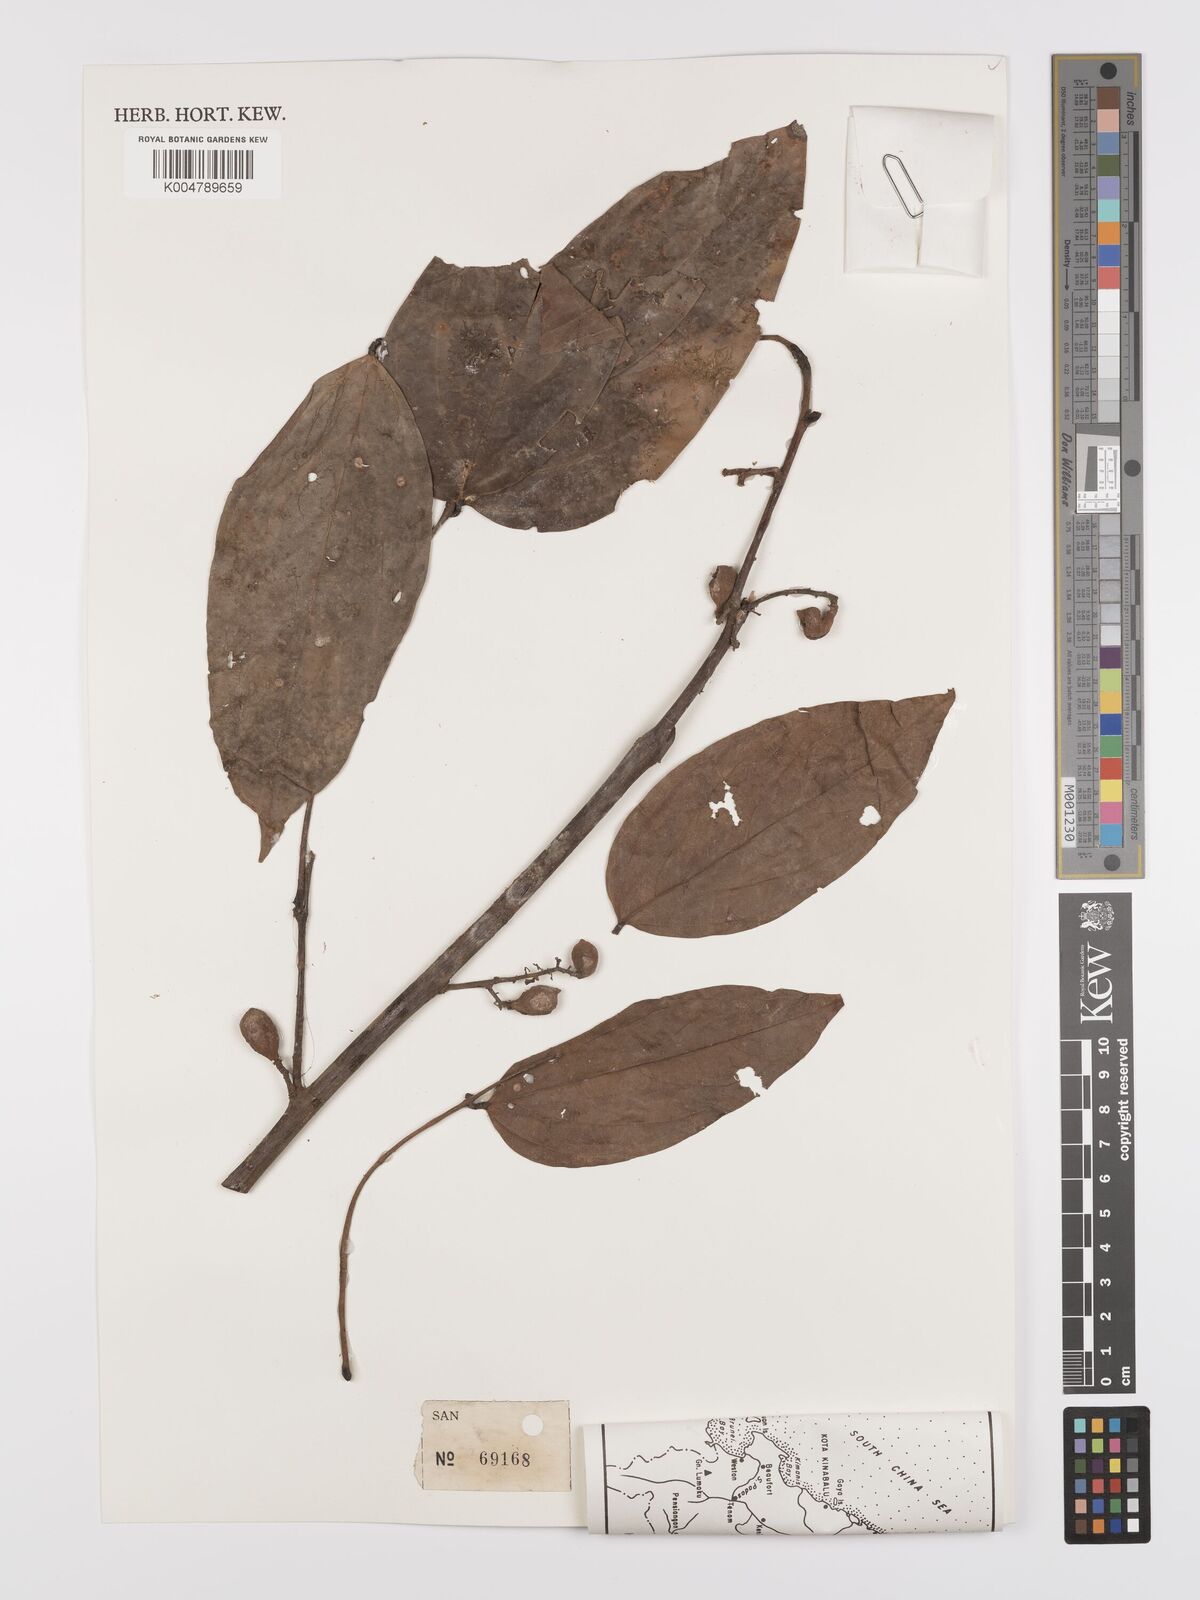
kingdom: Plantae
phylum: Tracheophyta
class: Magnoliopsida
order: Oxalidales
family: Connaraceae
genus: Agelaea
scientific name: Agelaea borneensis
